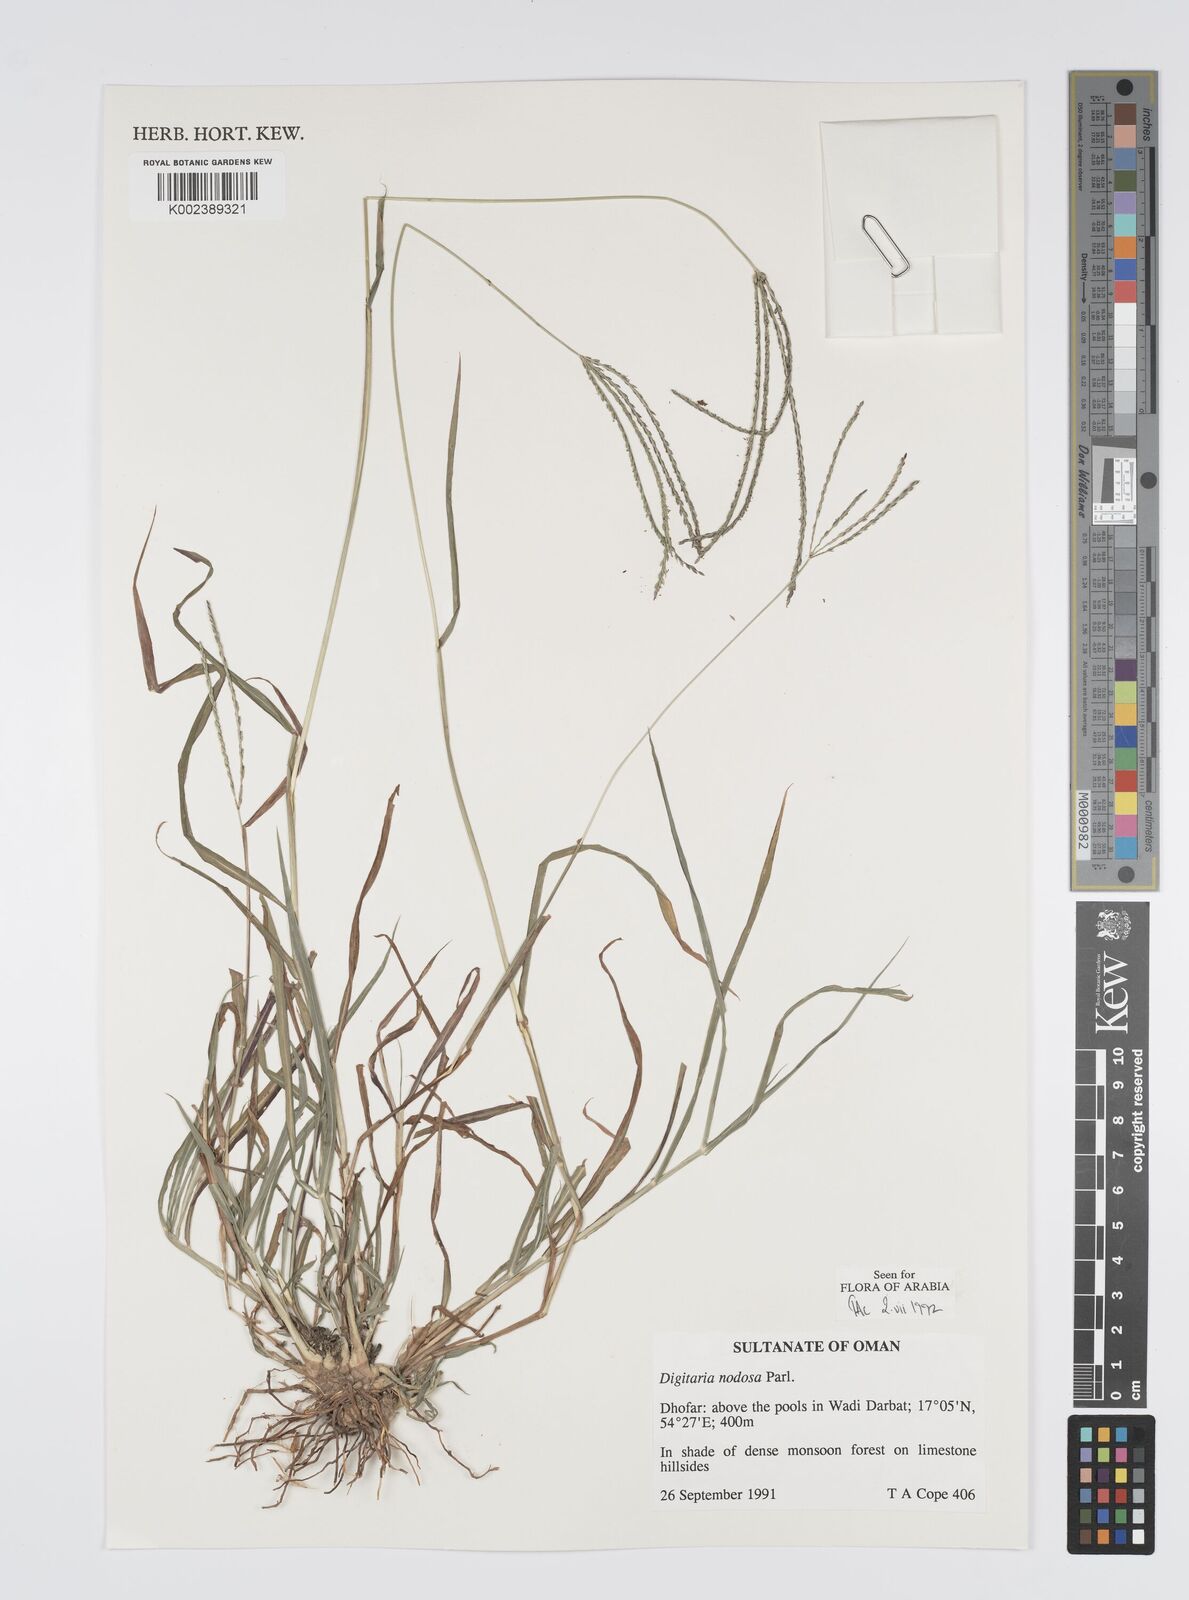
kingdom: Plantae
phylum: Tracheophyta
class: Liliopsida
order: Poales
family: Poaceae
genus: Digitaria
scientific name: Digitaria nodosa
